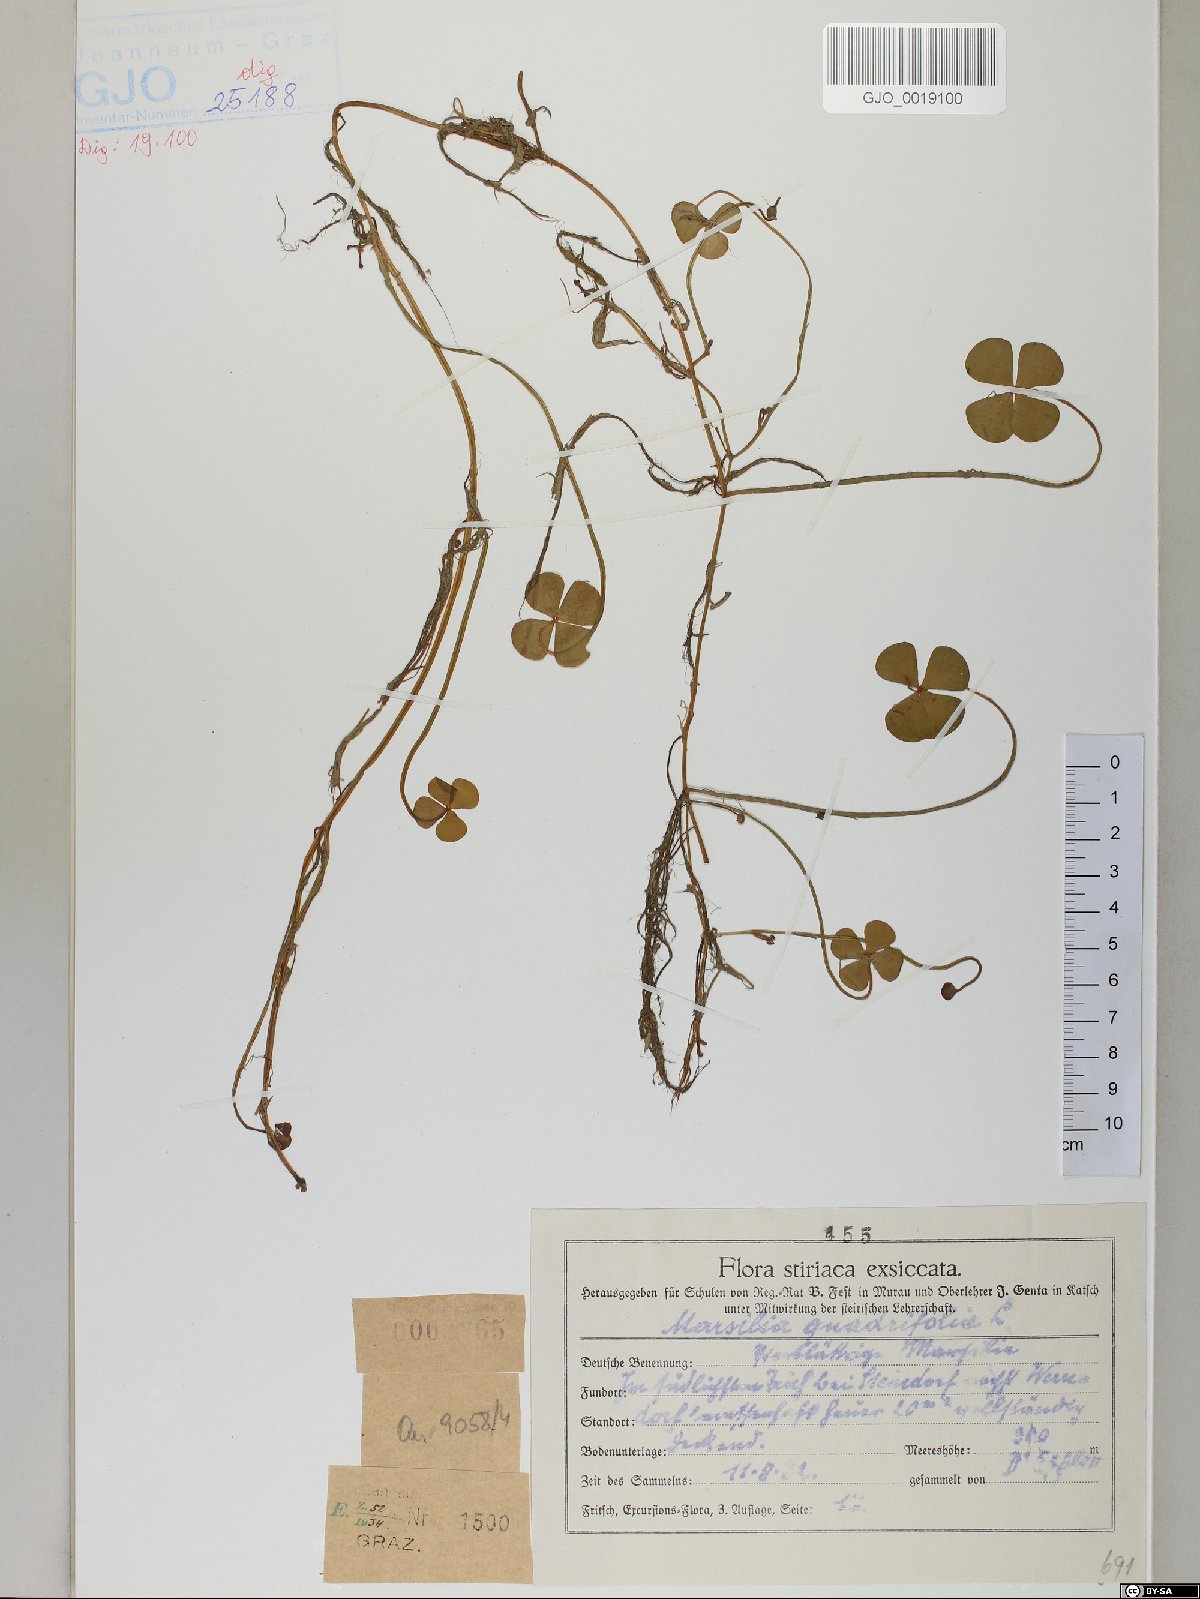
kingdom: Plantae
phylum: Tracheophyta
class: Polypodiopsida
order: Salviniales
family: Marsileaceae
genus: Marsilea
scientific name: Marsilea quadrifolia
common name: Water shamrock
